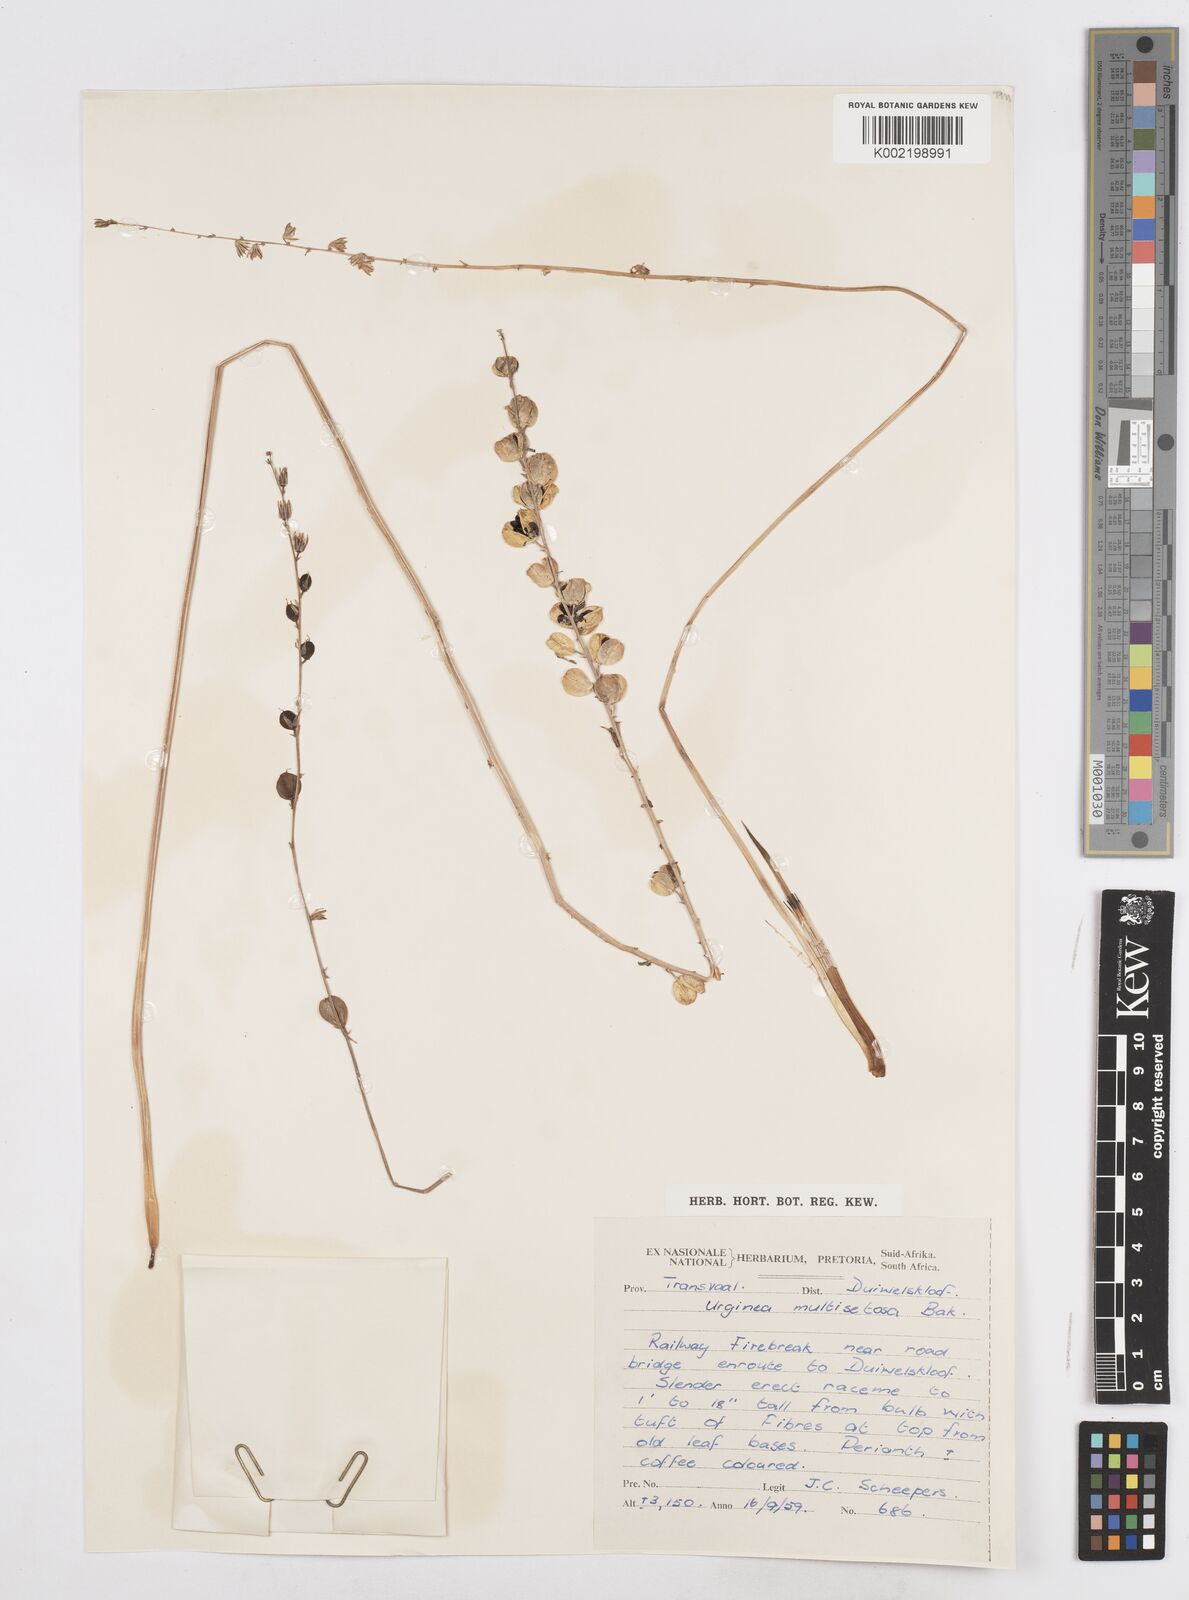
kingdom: Plantae
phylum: Tracheophyta
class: Liliopsida
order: Asparagales
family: Asparagaceae
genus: Drimia
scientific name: Drimia multisetosa
